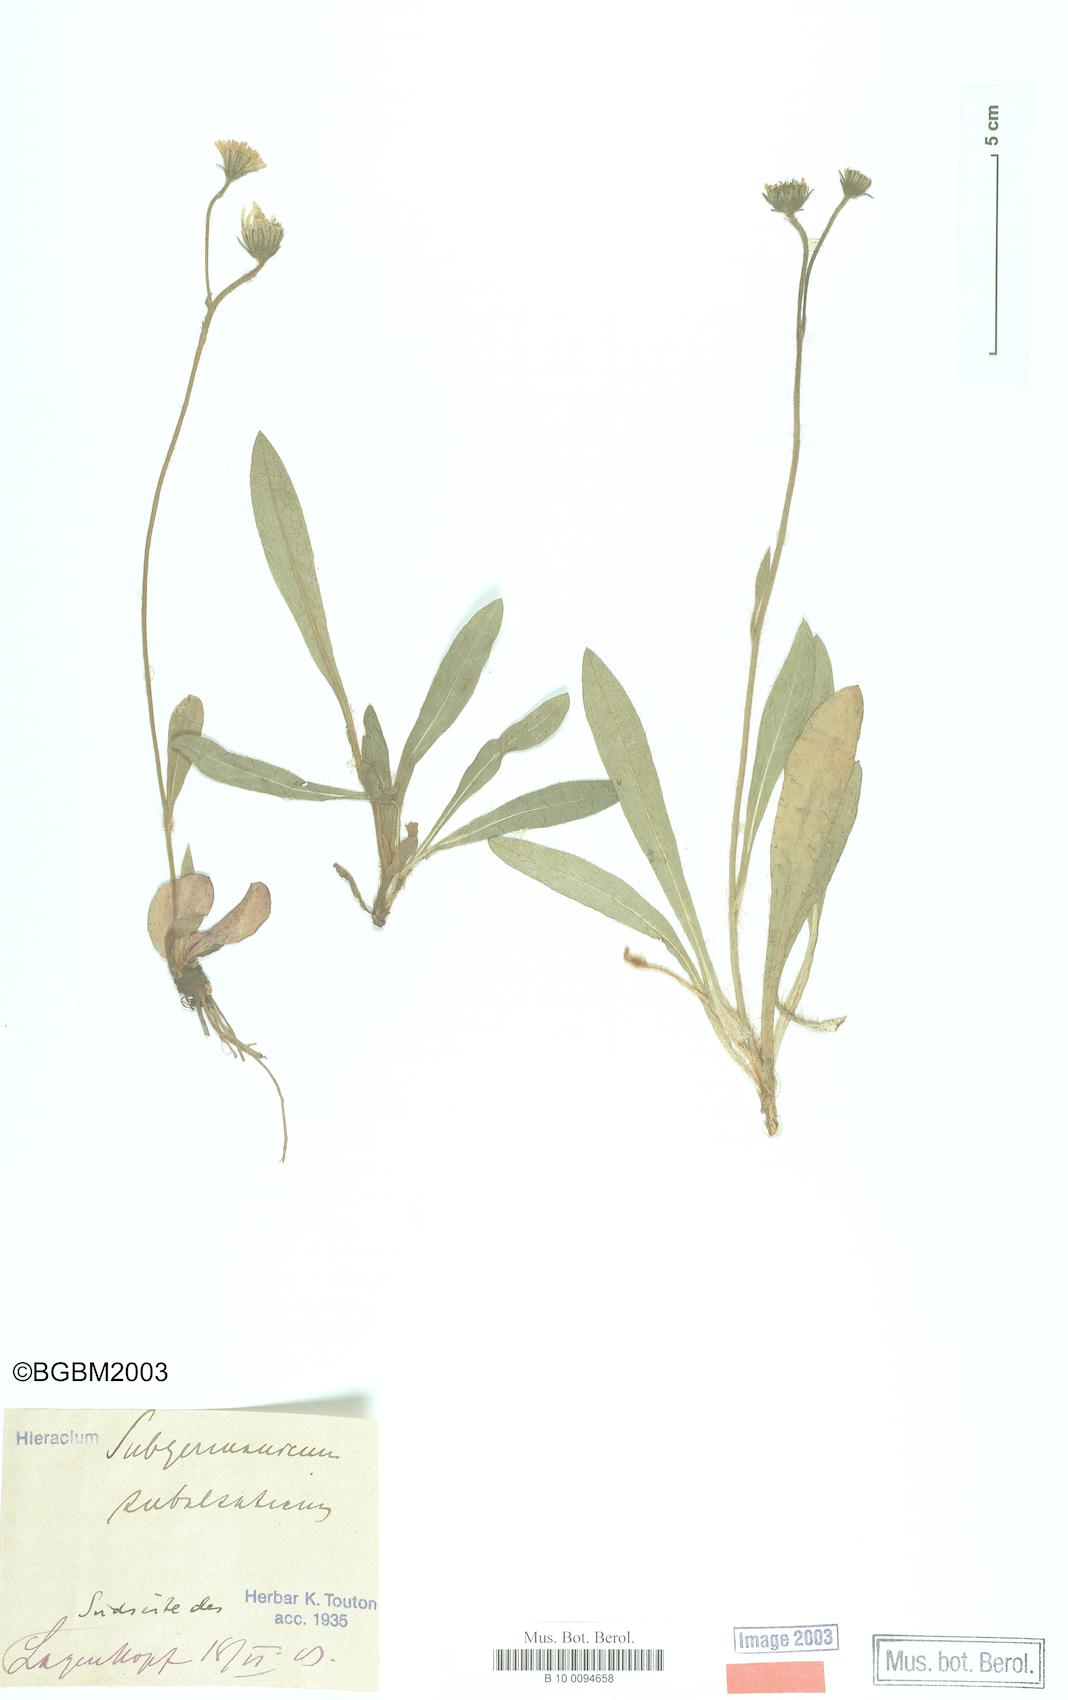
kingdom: Plantae
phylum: Tracheophyta
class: Magnoliopsida
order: Asterales
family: Asteraceae
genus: Pilosella
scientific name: Pilosella pilosellina
